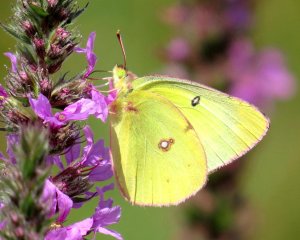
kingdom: Animalia
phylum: Arthropoda
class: Insecta
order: Lepidoptera
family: Pieridae
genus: Colias
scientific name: Colias philodice
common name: Clouded Sulphur
